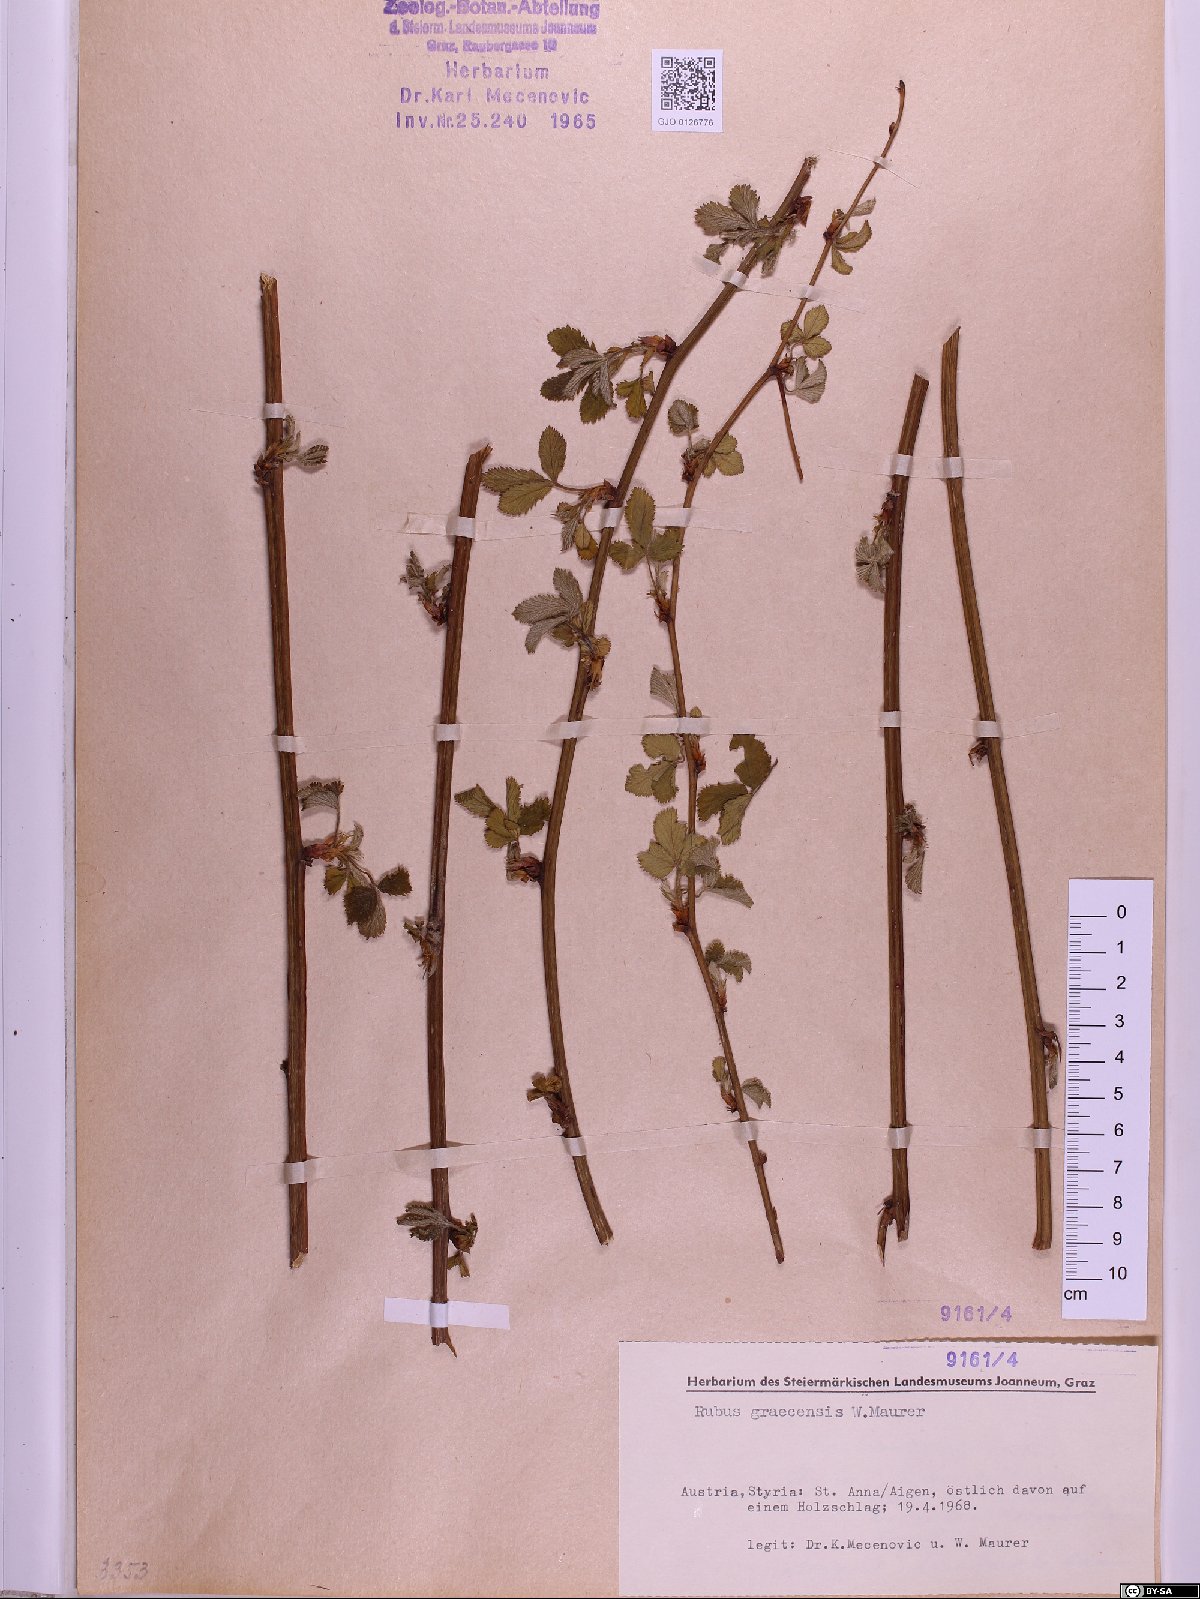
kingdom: Plantae
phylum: Tracheophyta
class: Magnoliopsida
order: Rosales
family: Rosaceae
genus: Rubus
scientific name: Rubus graecensis
